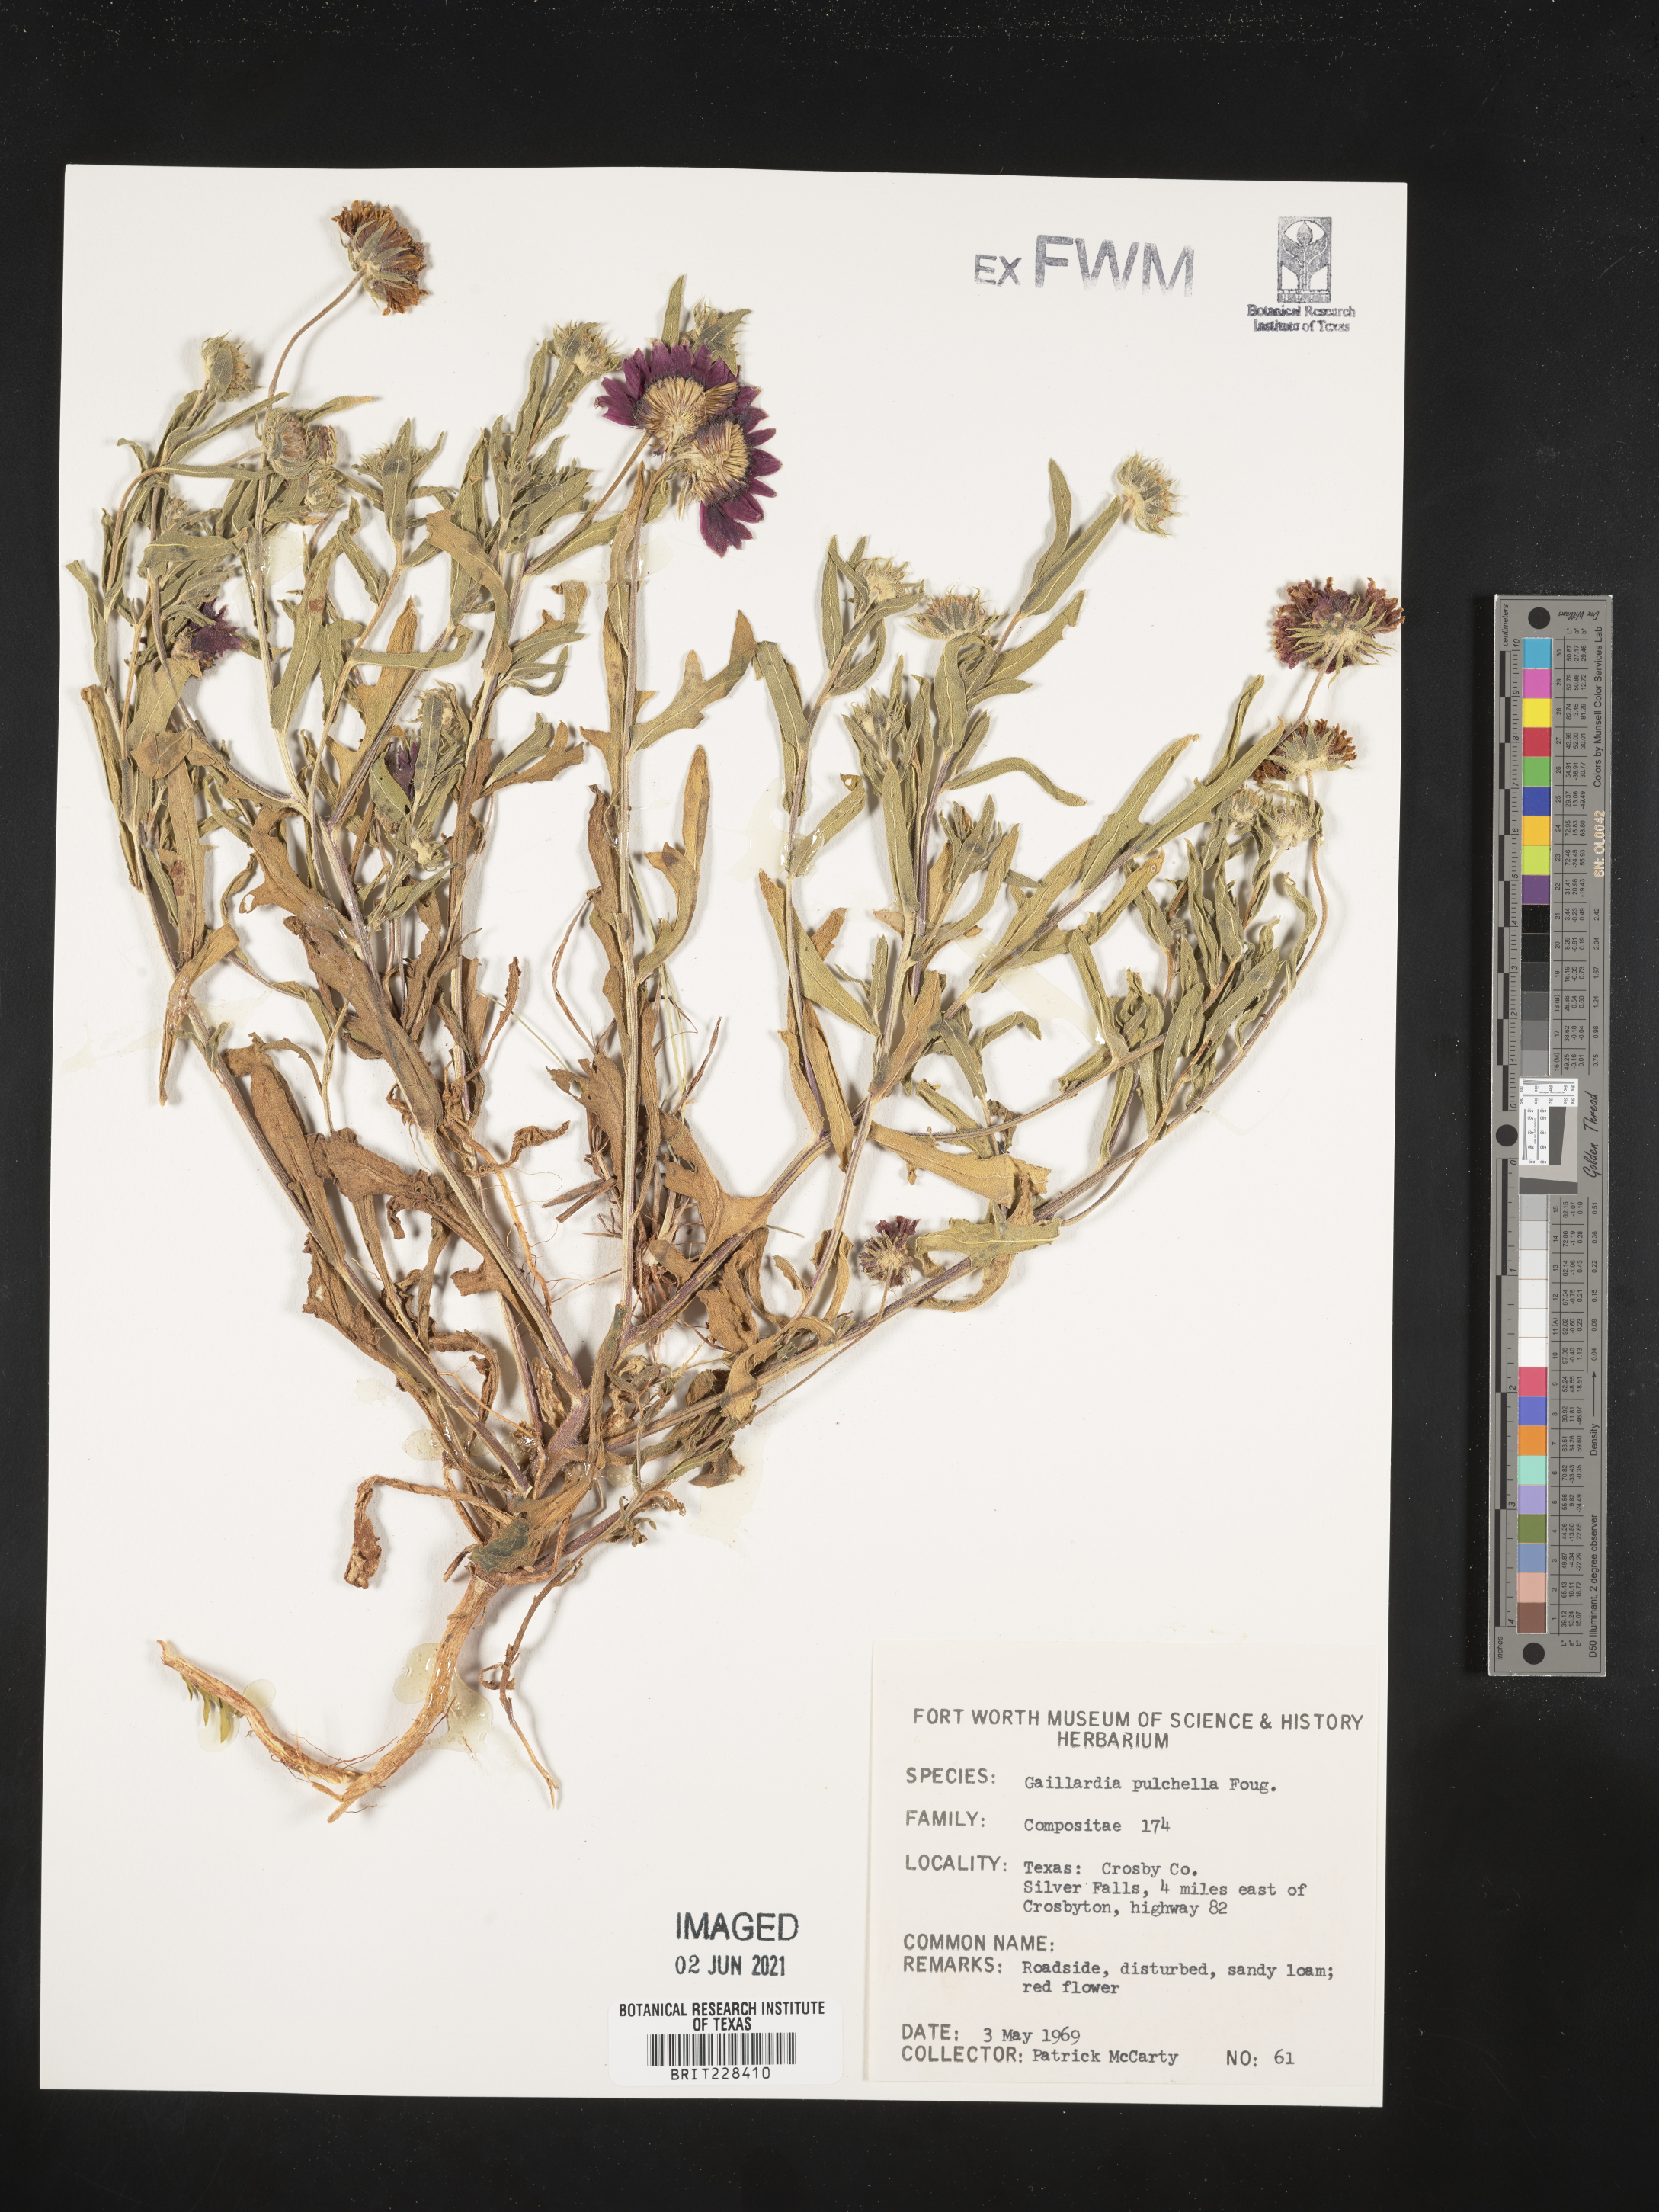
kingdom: Plantae
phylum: Tracheophyta
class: Magnoliopsida
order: Asterales
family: Asteraceae
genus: Gaillardia
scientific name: Gaillardia pulchella
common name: Firewheel
